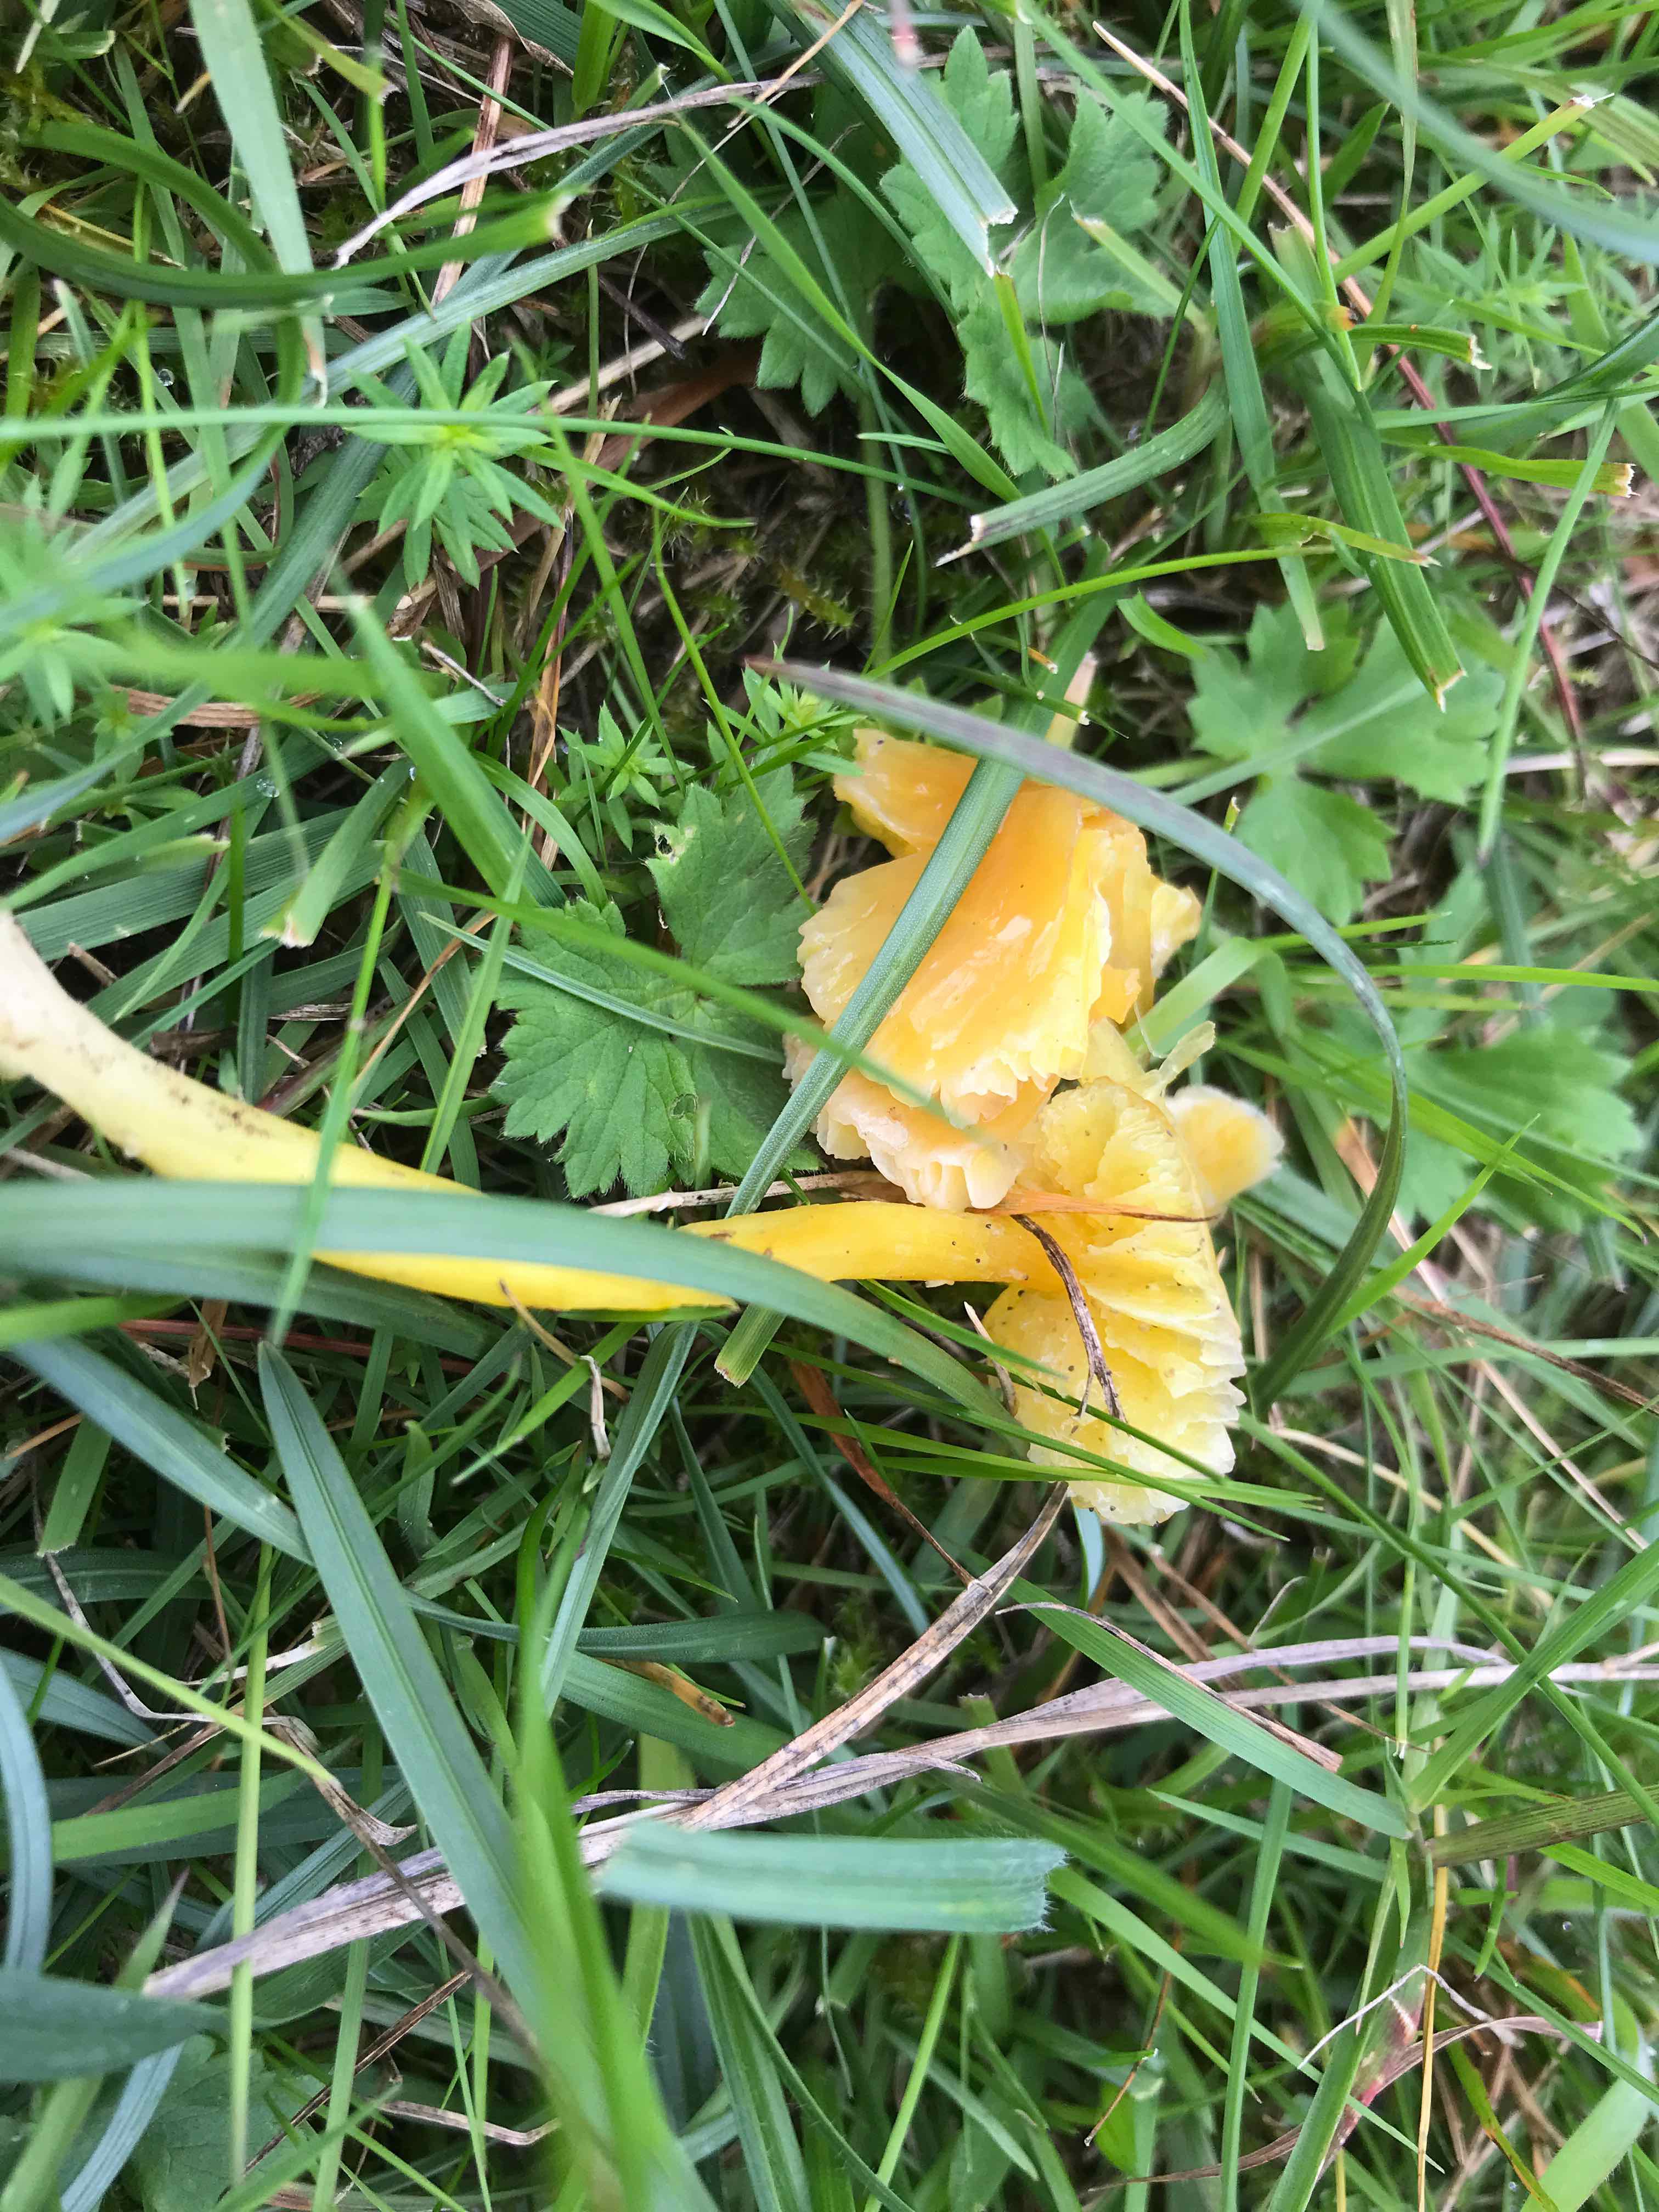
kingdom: Fungi
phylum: Basidiomycota
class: Agaricomycetes
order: Agaricales
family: Hygrophoraceae
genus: Hygrocybe
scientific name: Hygrocybe chlorophana
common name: gul vokshat
